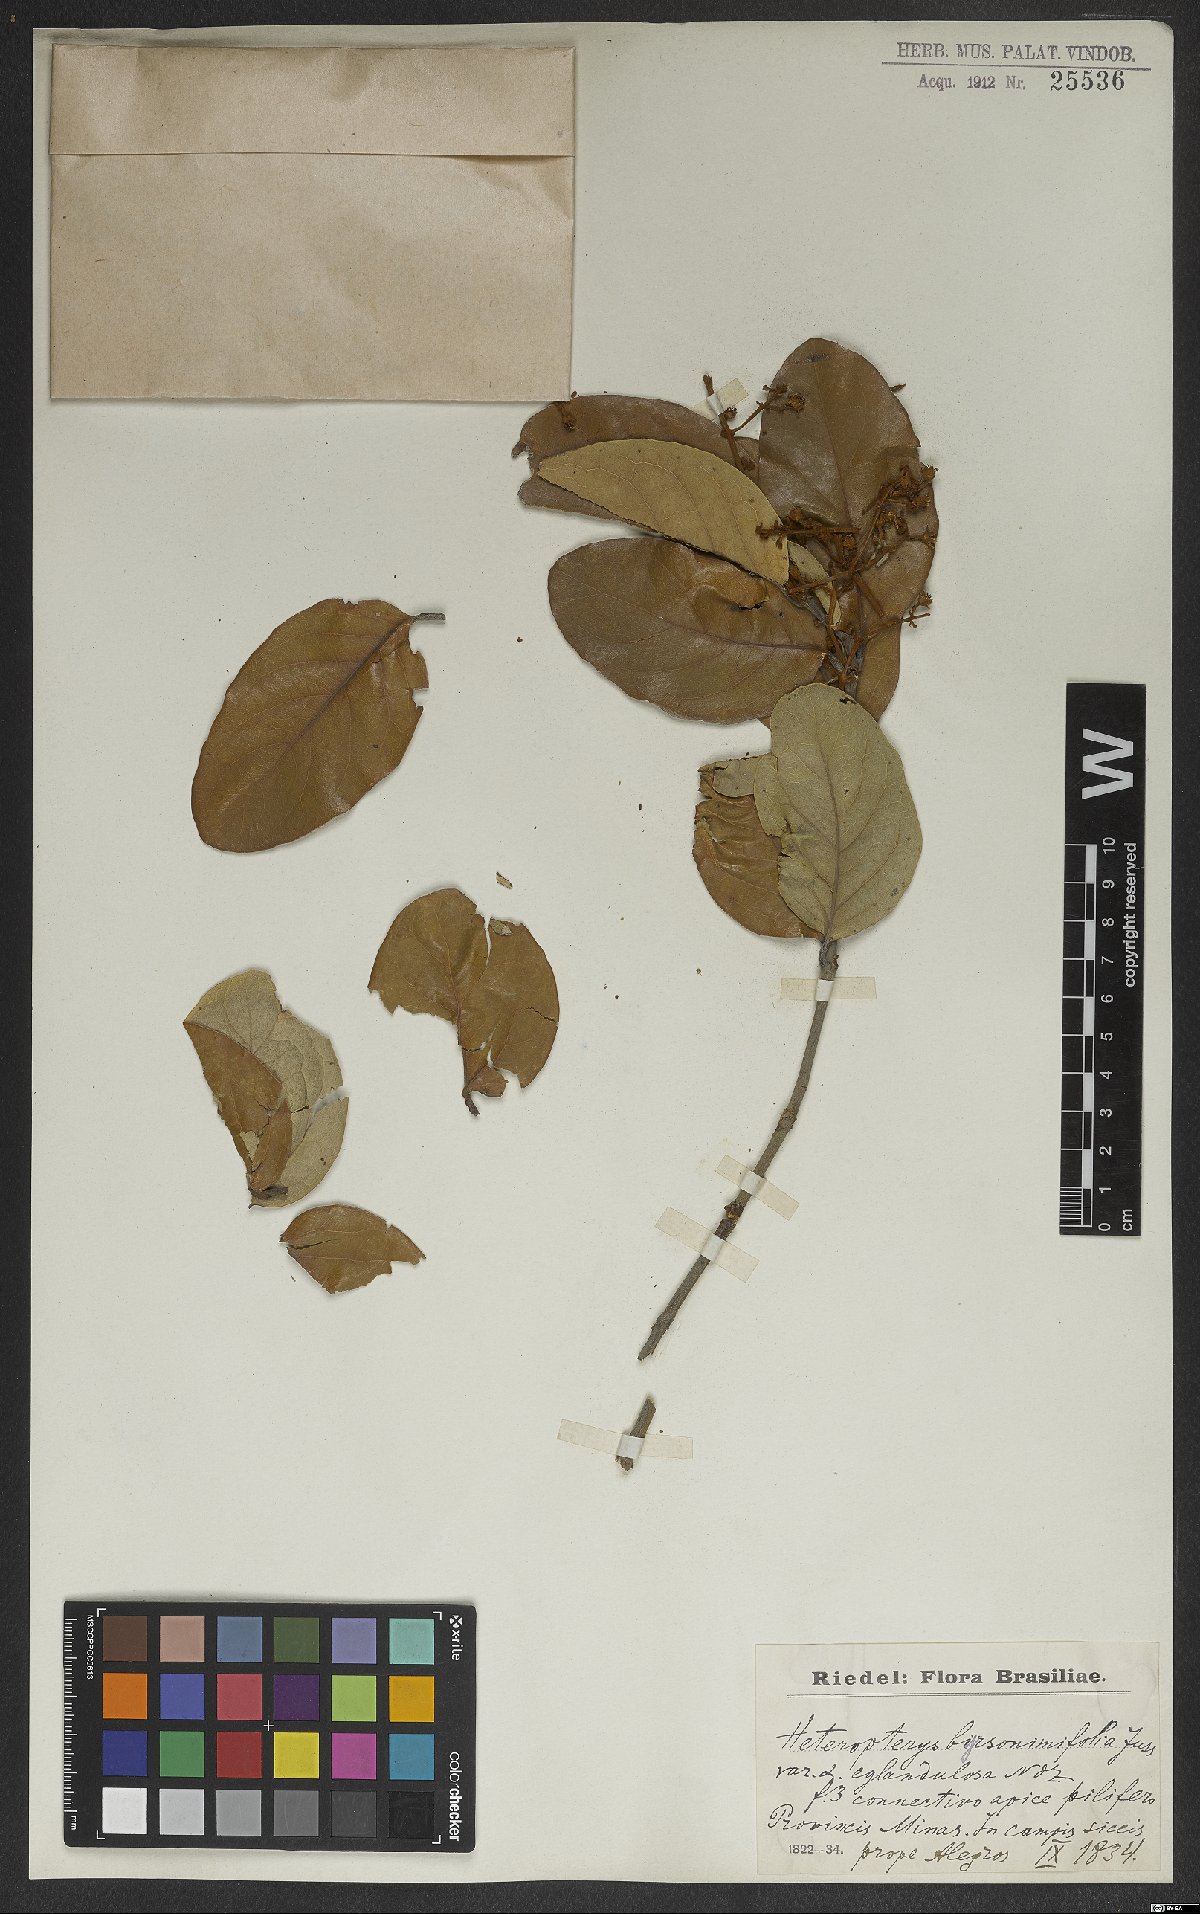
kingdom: Plantae
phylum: Tracheophyta
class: Magnoliopsida
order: Malpighiales
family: Malpighiaceae
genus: Heteropterys
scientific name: Heteropterys byrsonimifolia
